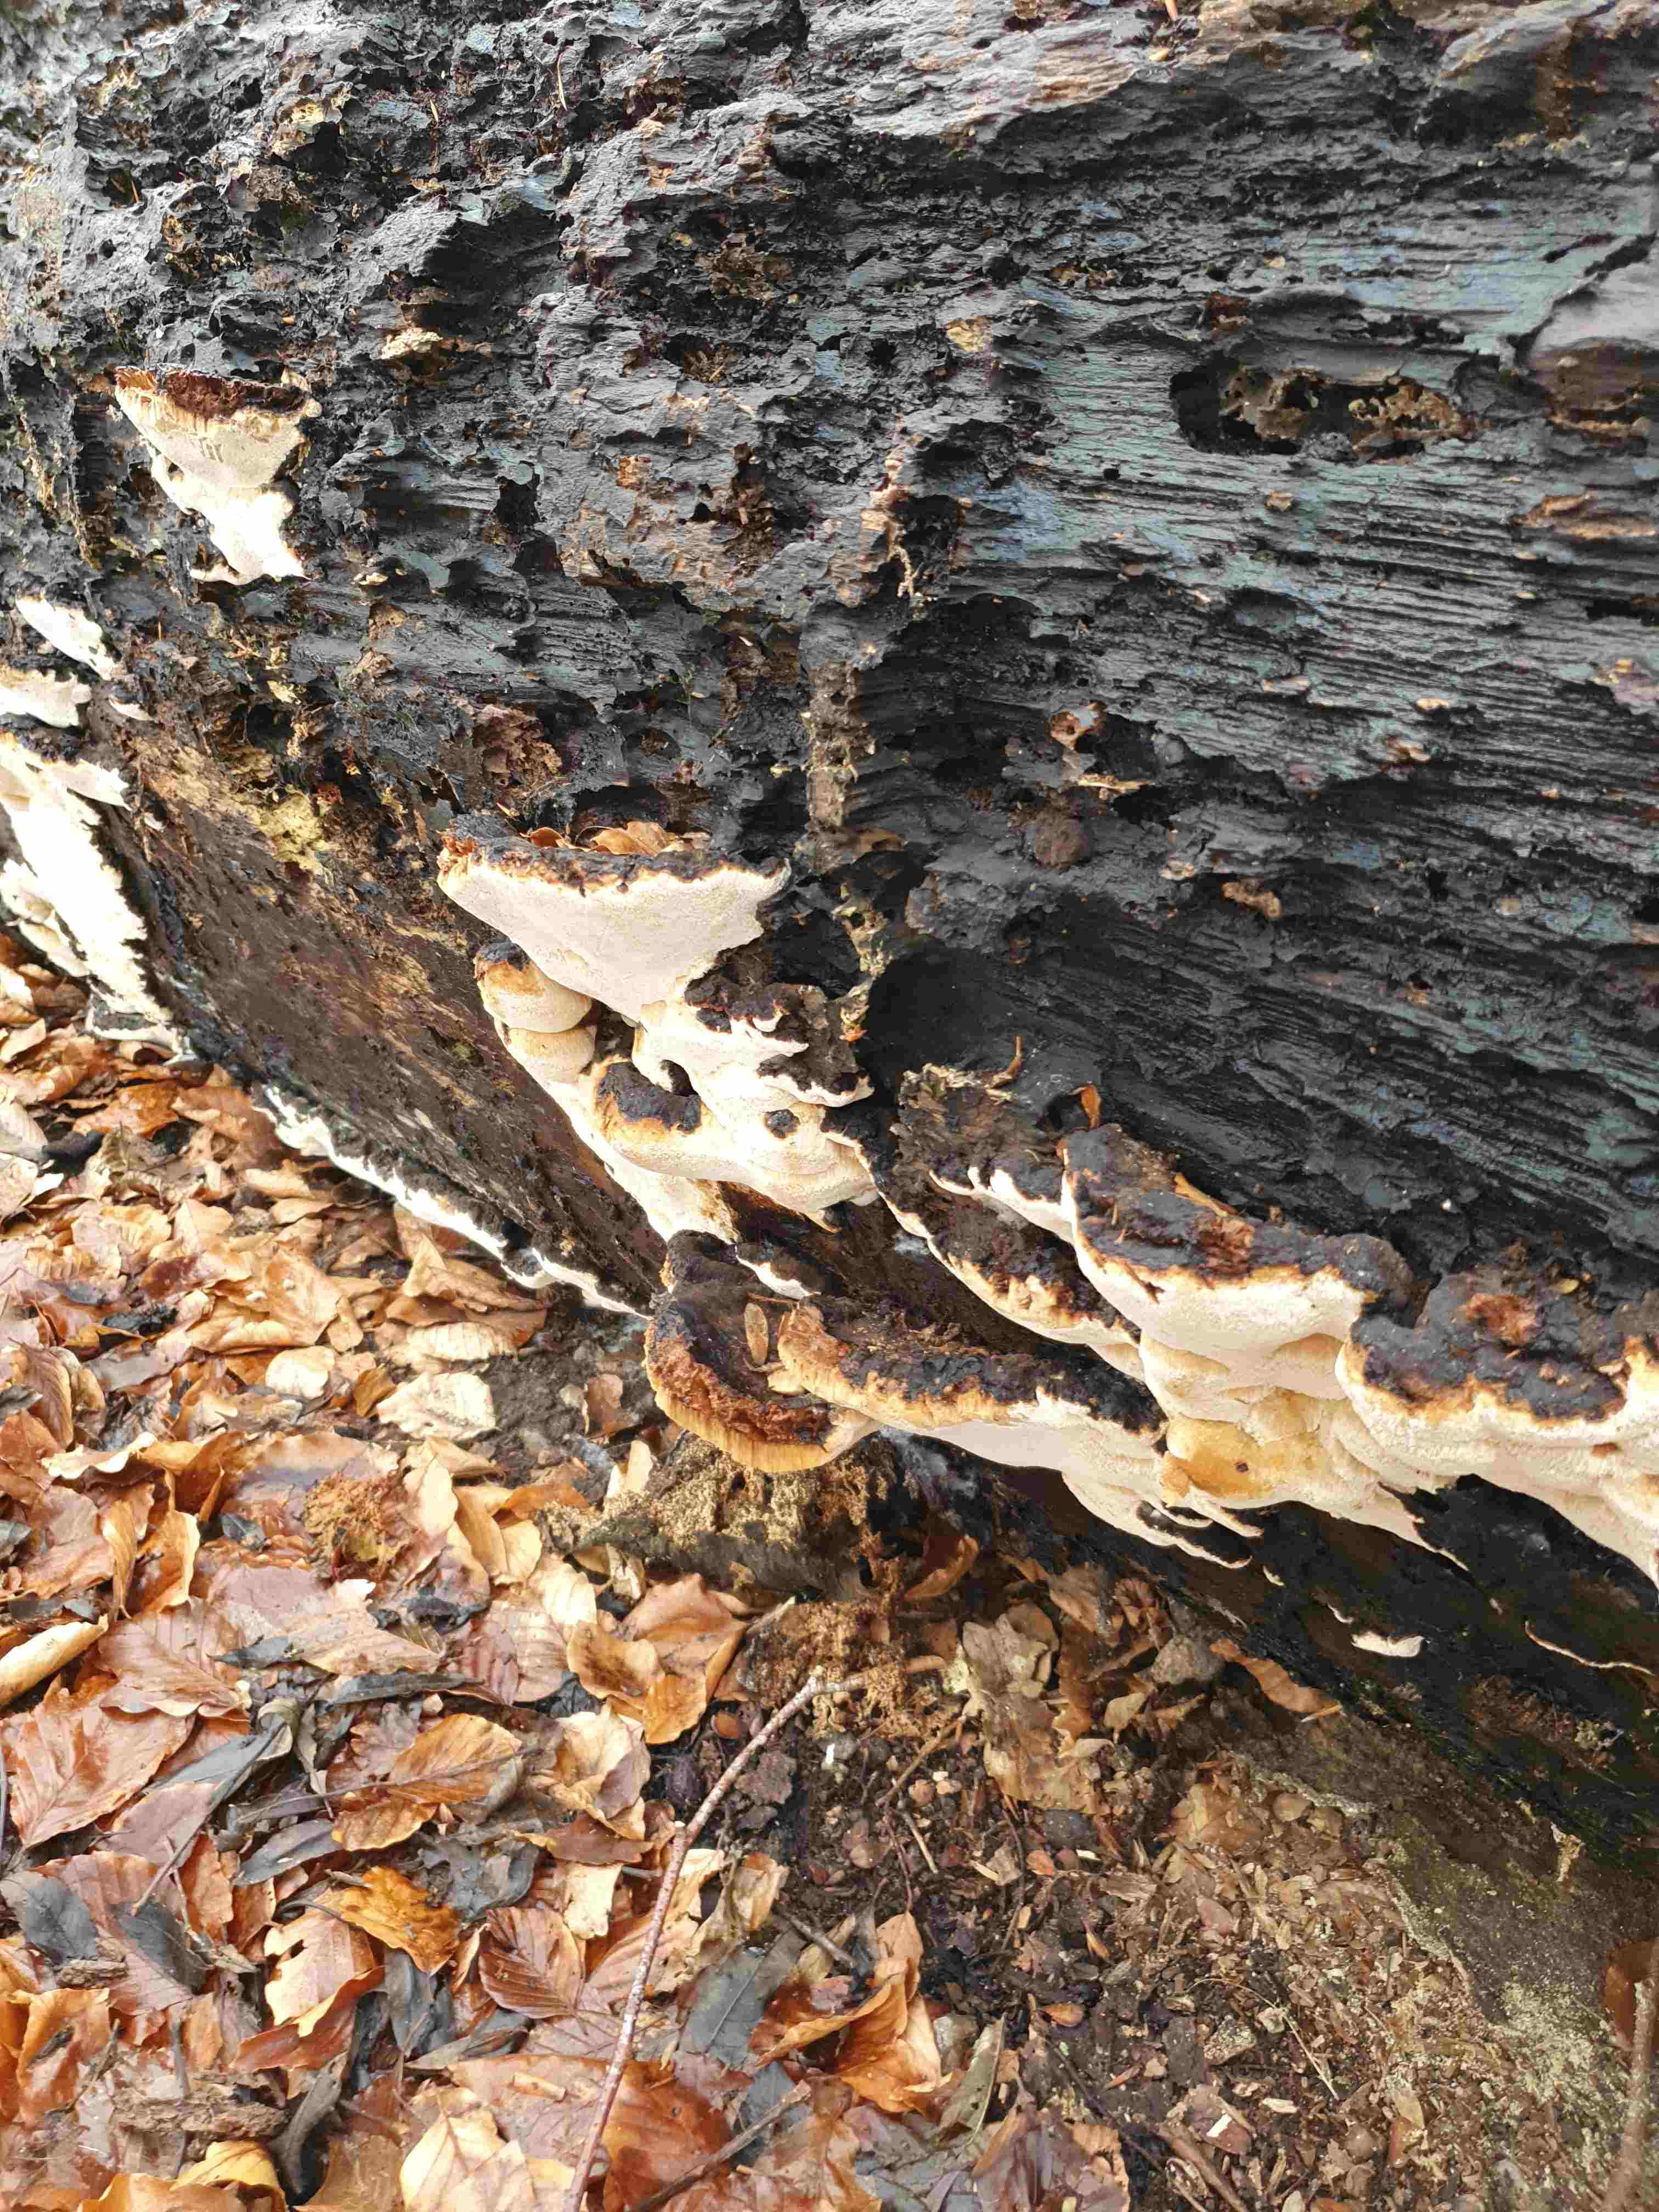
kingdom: Fungi
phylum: Basidiomycota
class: Agaricomycetes
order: Polyporales
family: Ischnodermataceae
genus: Ischnoderma
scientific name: Ischnoderma resinosum
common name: løv-tjæreporesvamp
